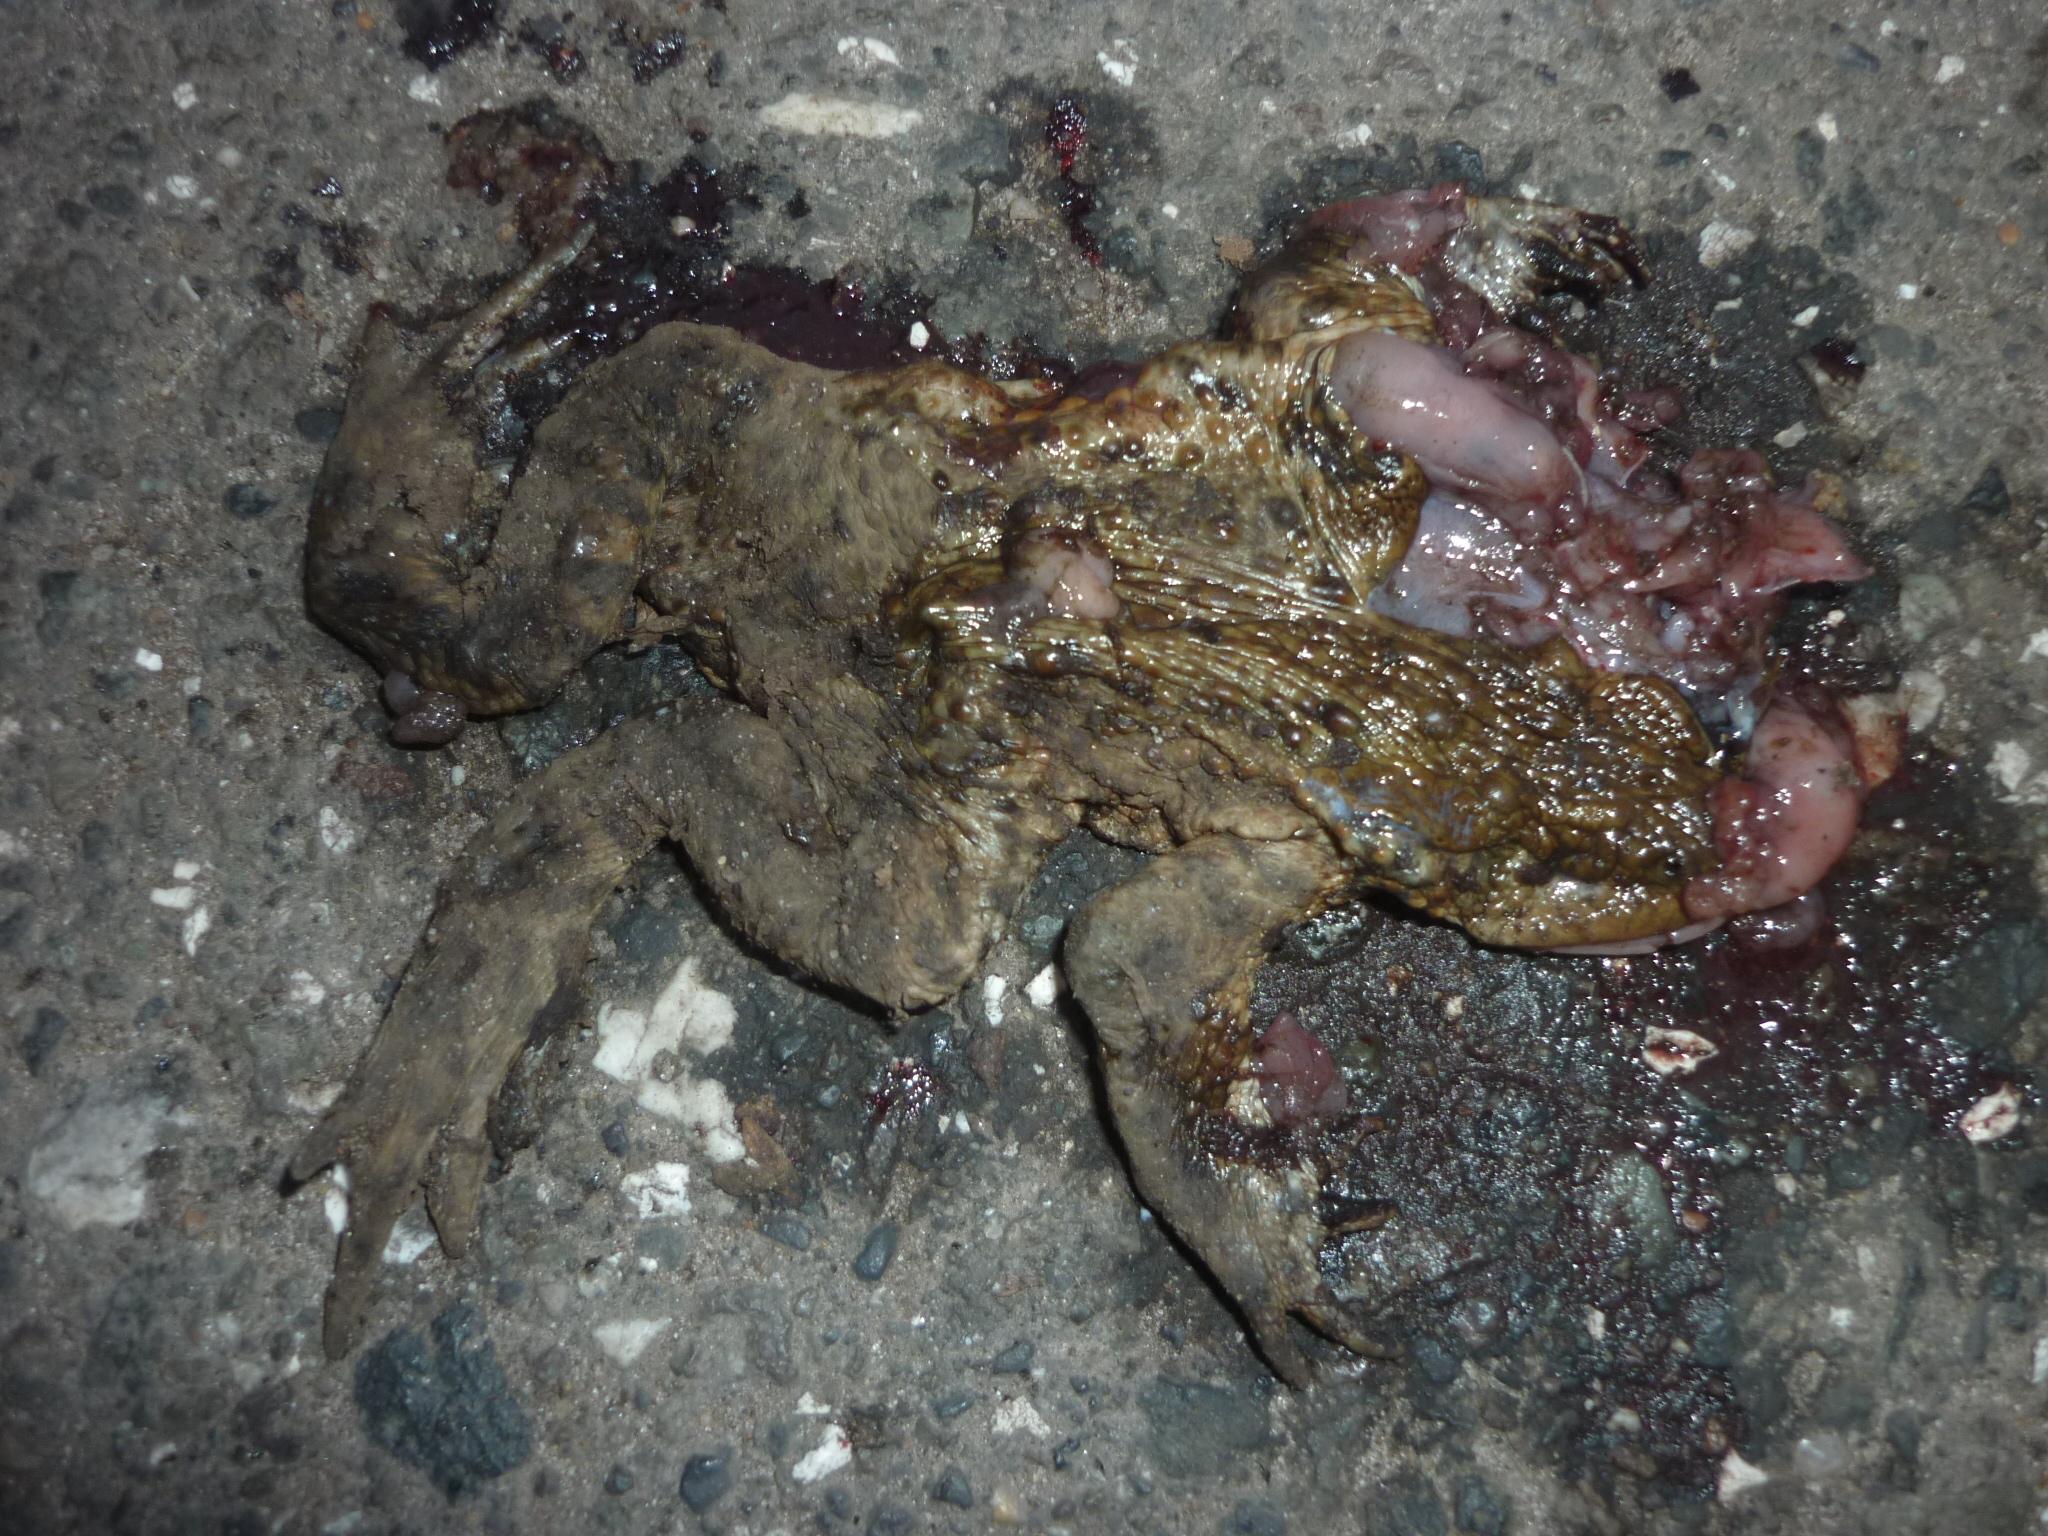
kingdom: Animalia
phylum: Chordata
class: Amphibia
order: Anura
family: Bufonidae
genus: Bufo
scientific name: Bufo bufo
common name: Common toad
